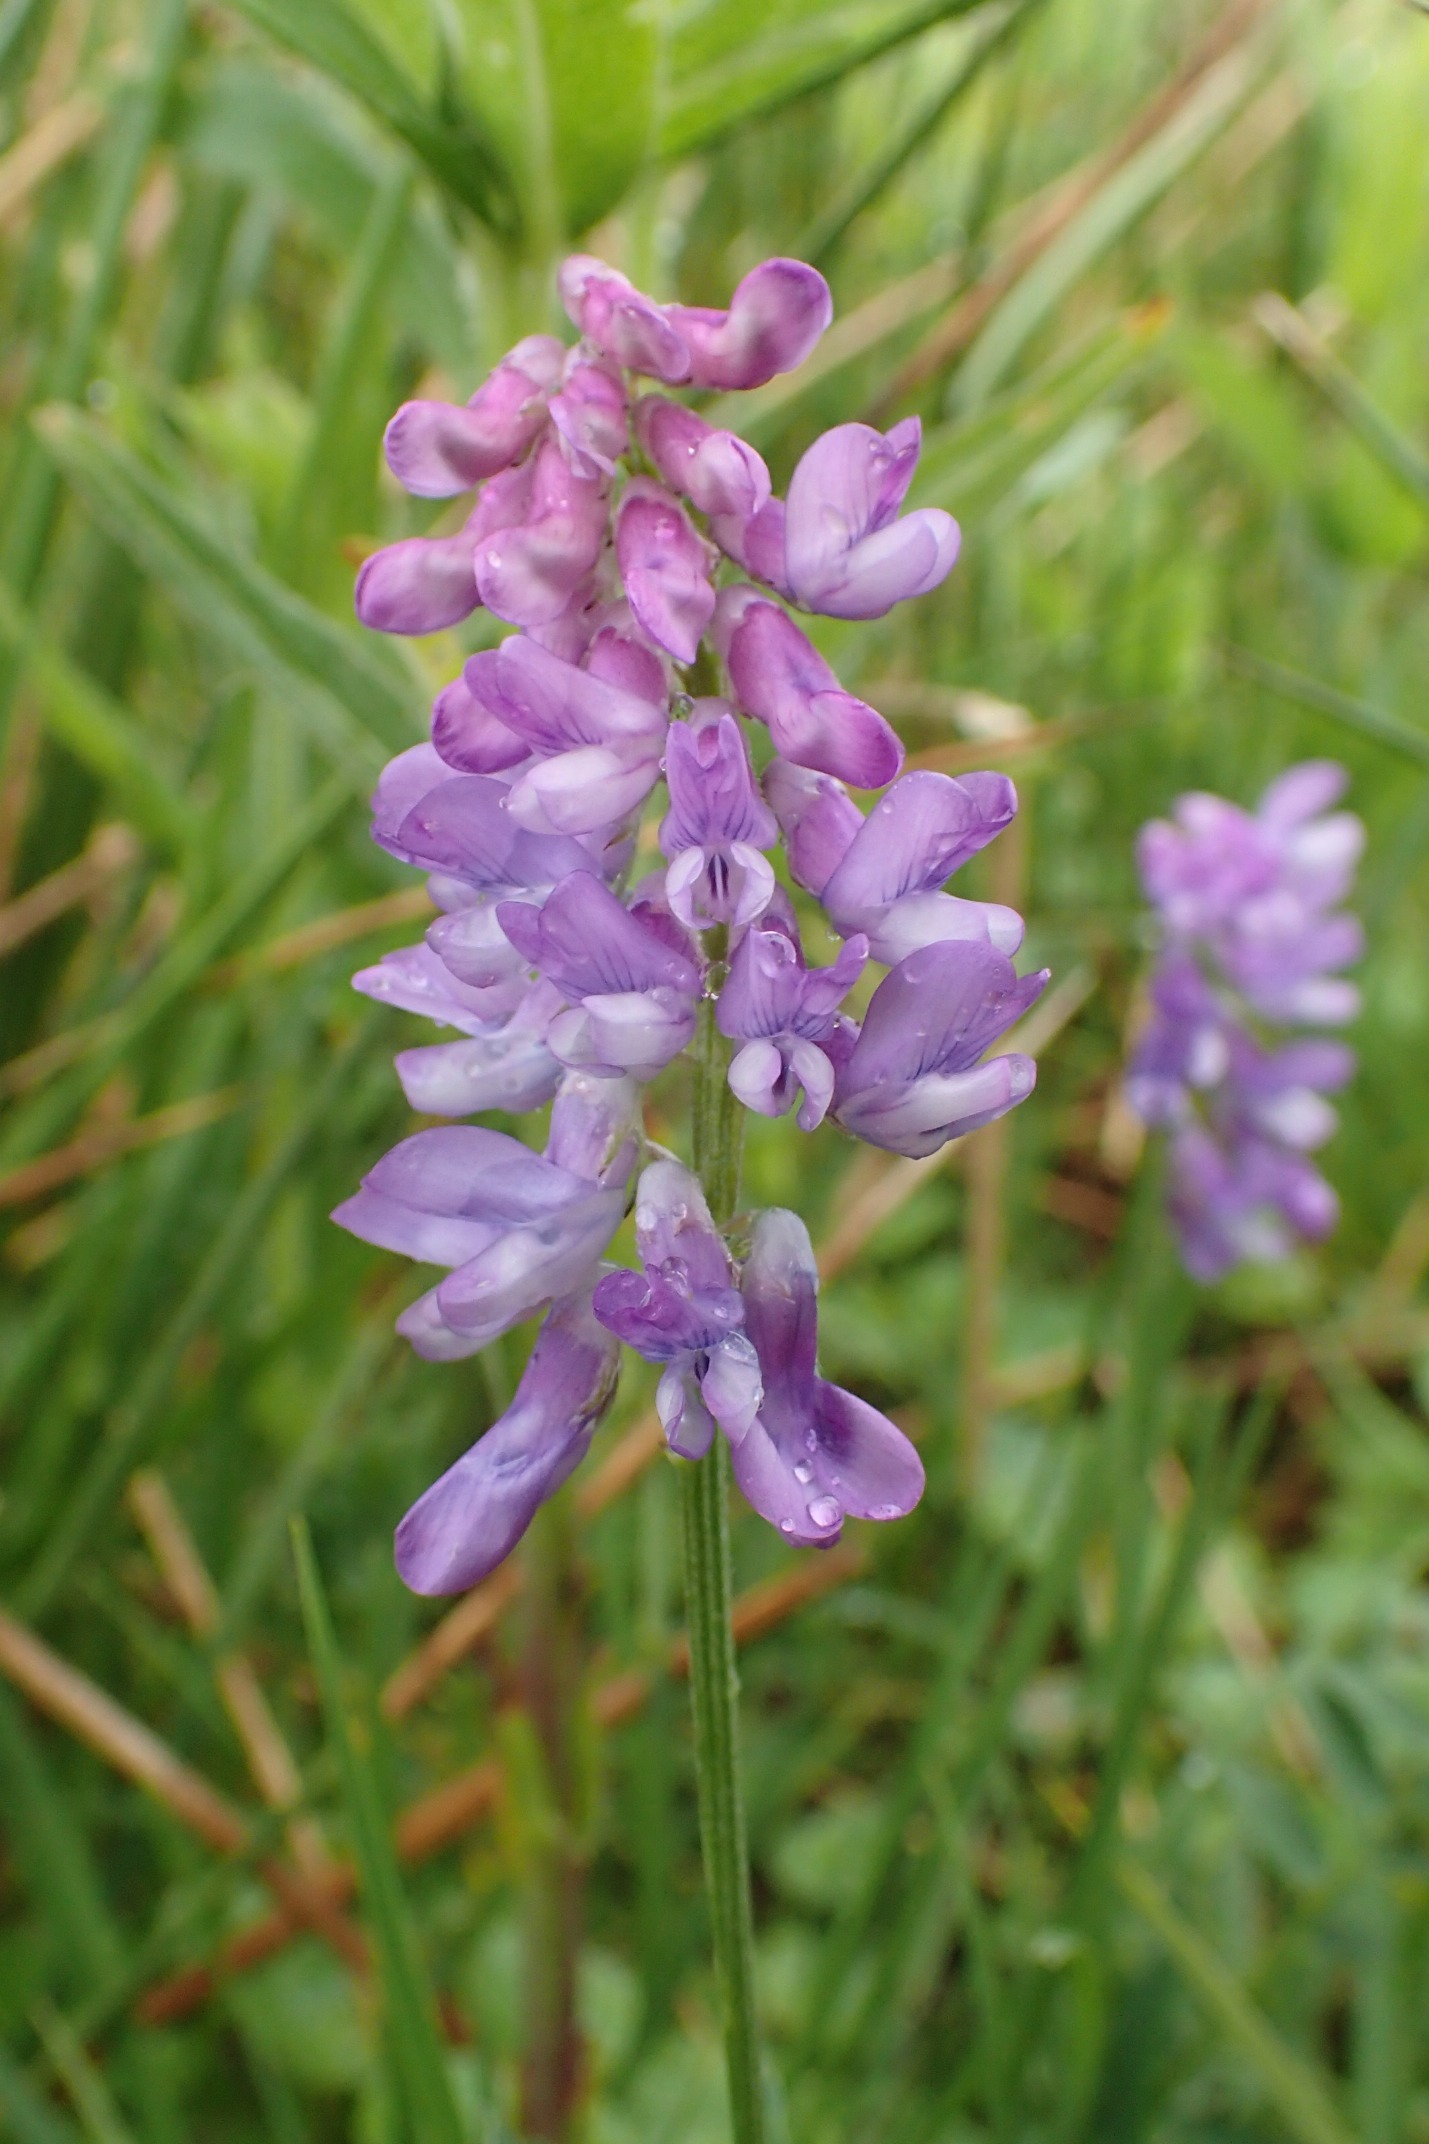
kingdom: Plantae
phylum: Tracheophyta
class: Magnoliopsida
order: Fabales
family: Fabaceae
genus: Vicia
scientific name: Vicia cracca
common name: Muse-vikke
